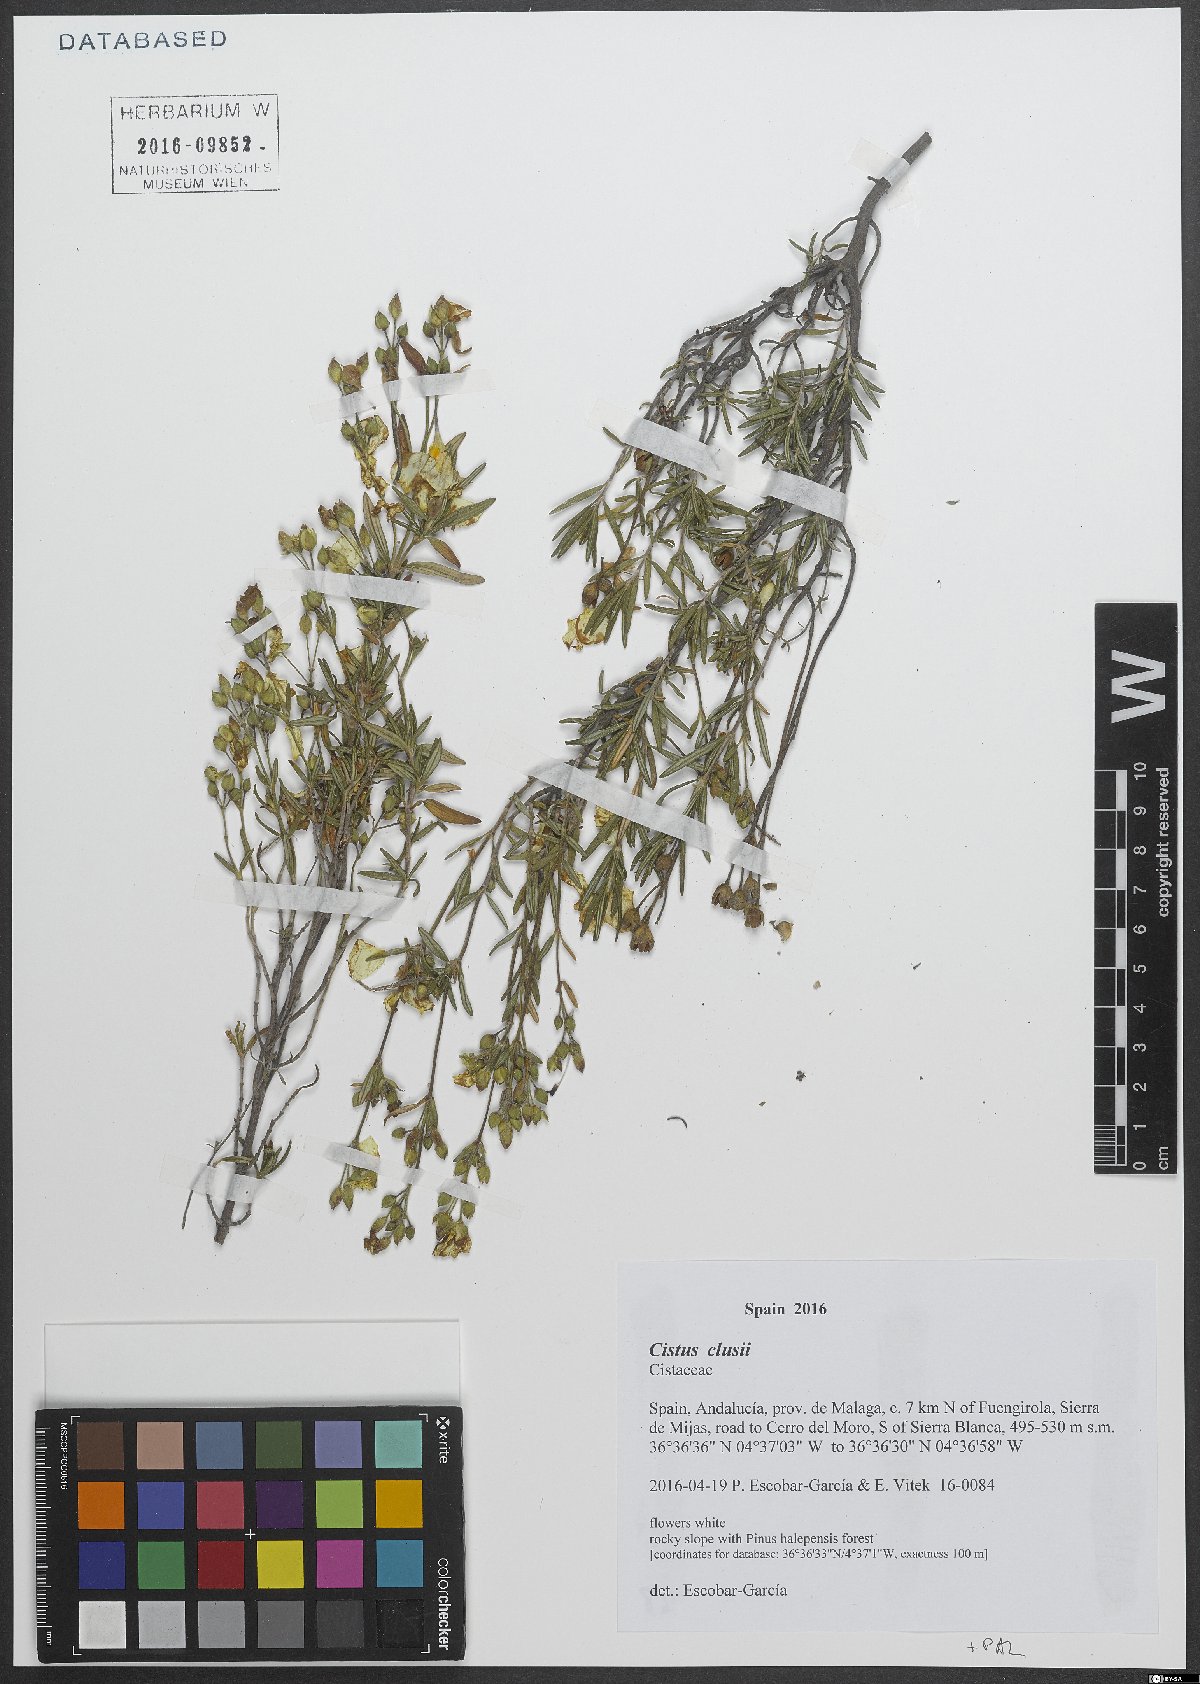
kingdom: Plantae
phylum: Tracheophyta
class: Magnoliopsida
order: Malvales
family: Cistaceae
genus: Cistus
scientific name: Cistus clusii
